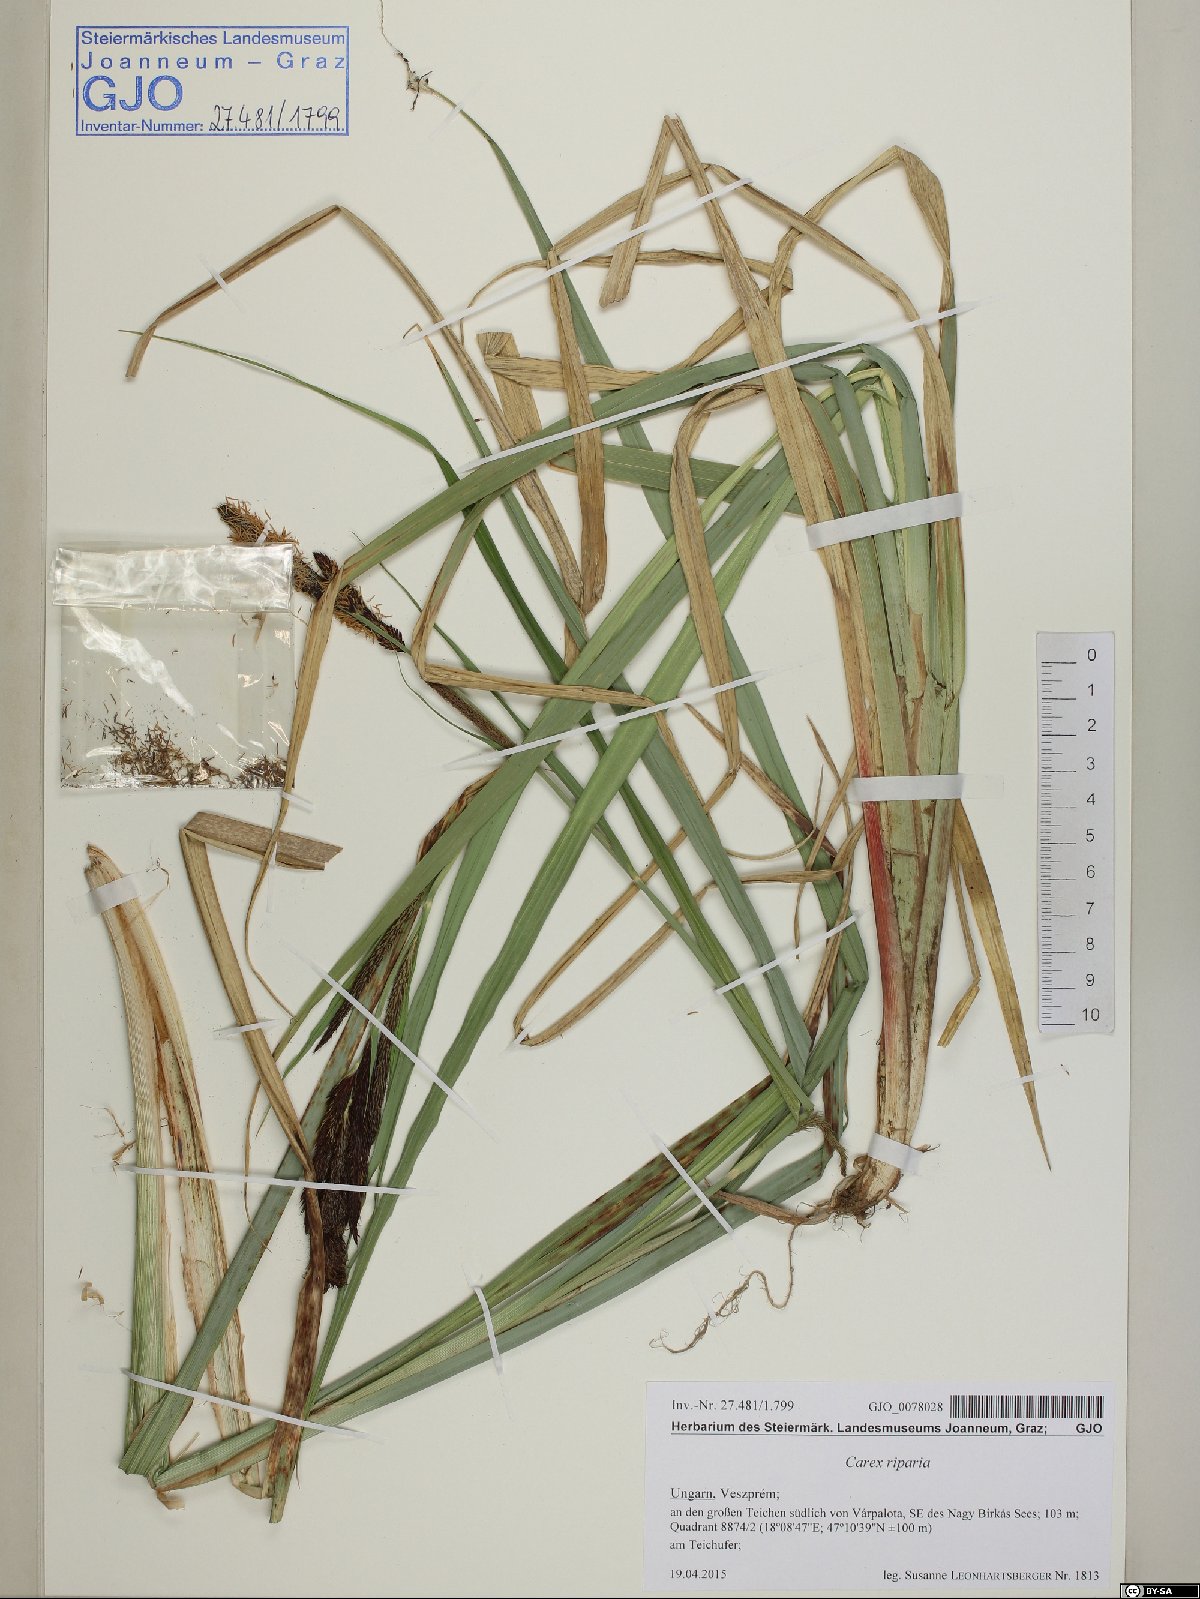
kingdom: Plantae
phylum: Tracheophyta
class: Liliopsida
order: Poales
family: Cyperaceae
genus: Carex
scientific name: Carex riparia
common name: Greater pond-sedge
